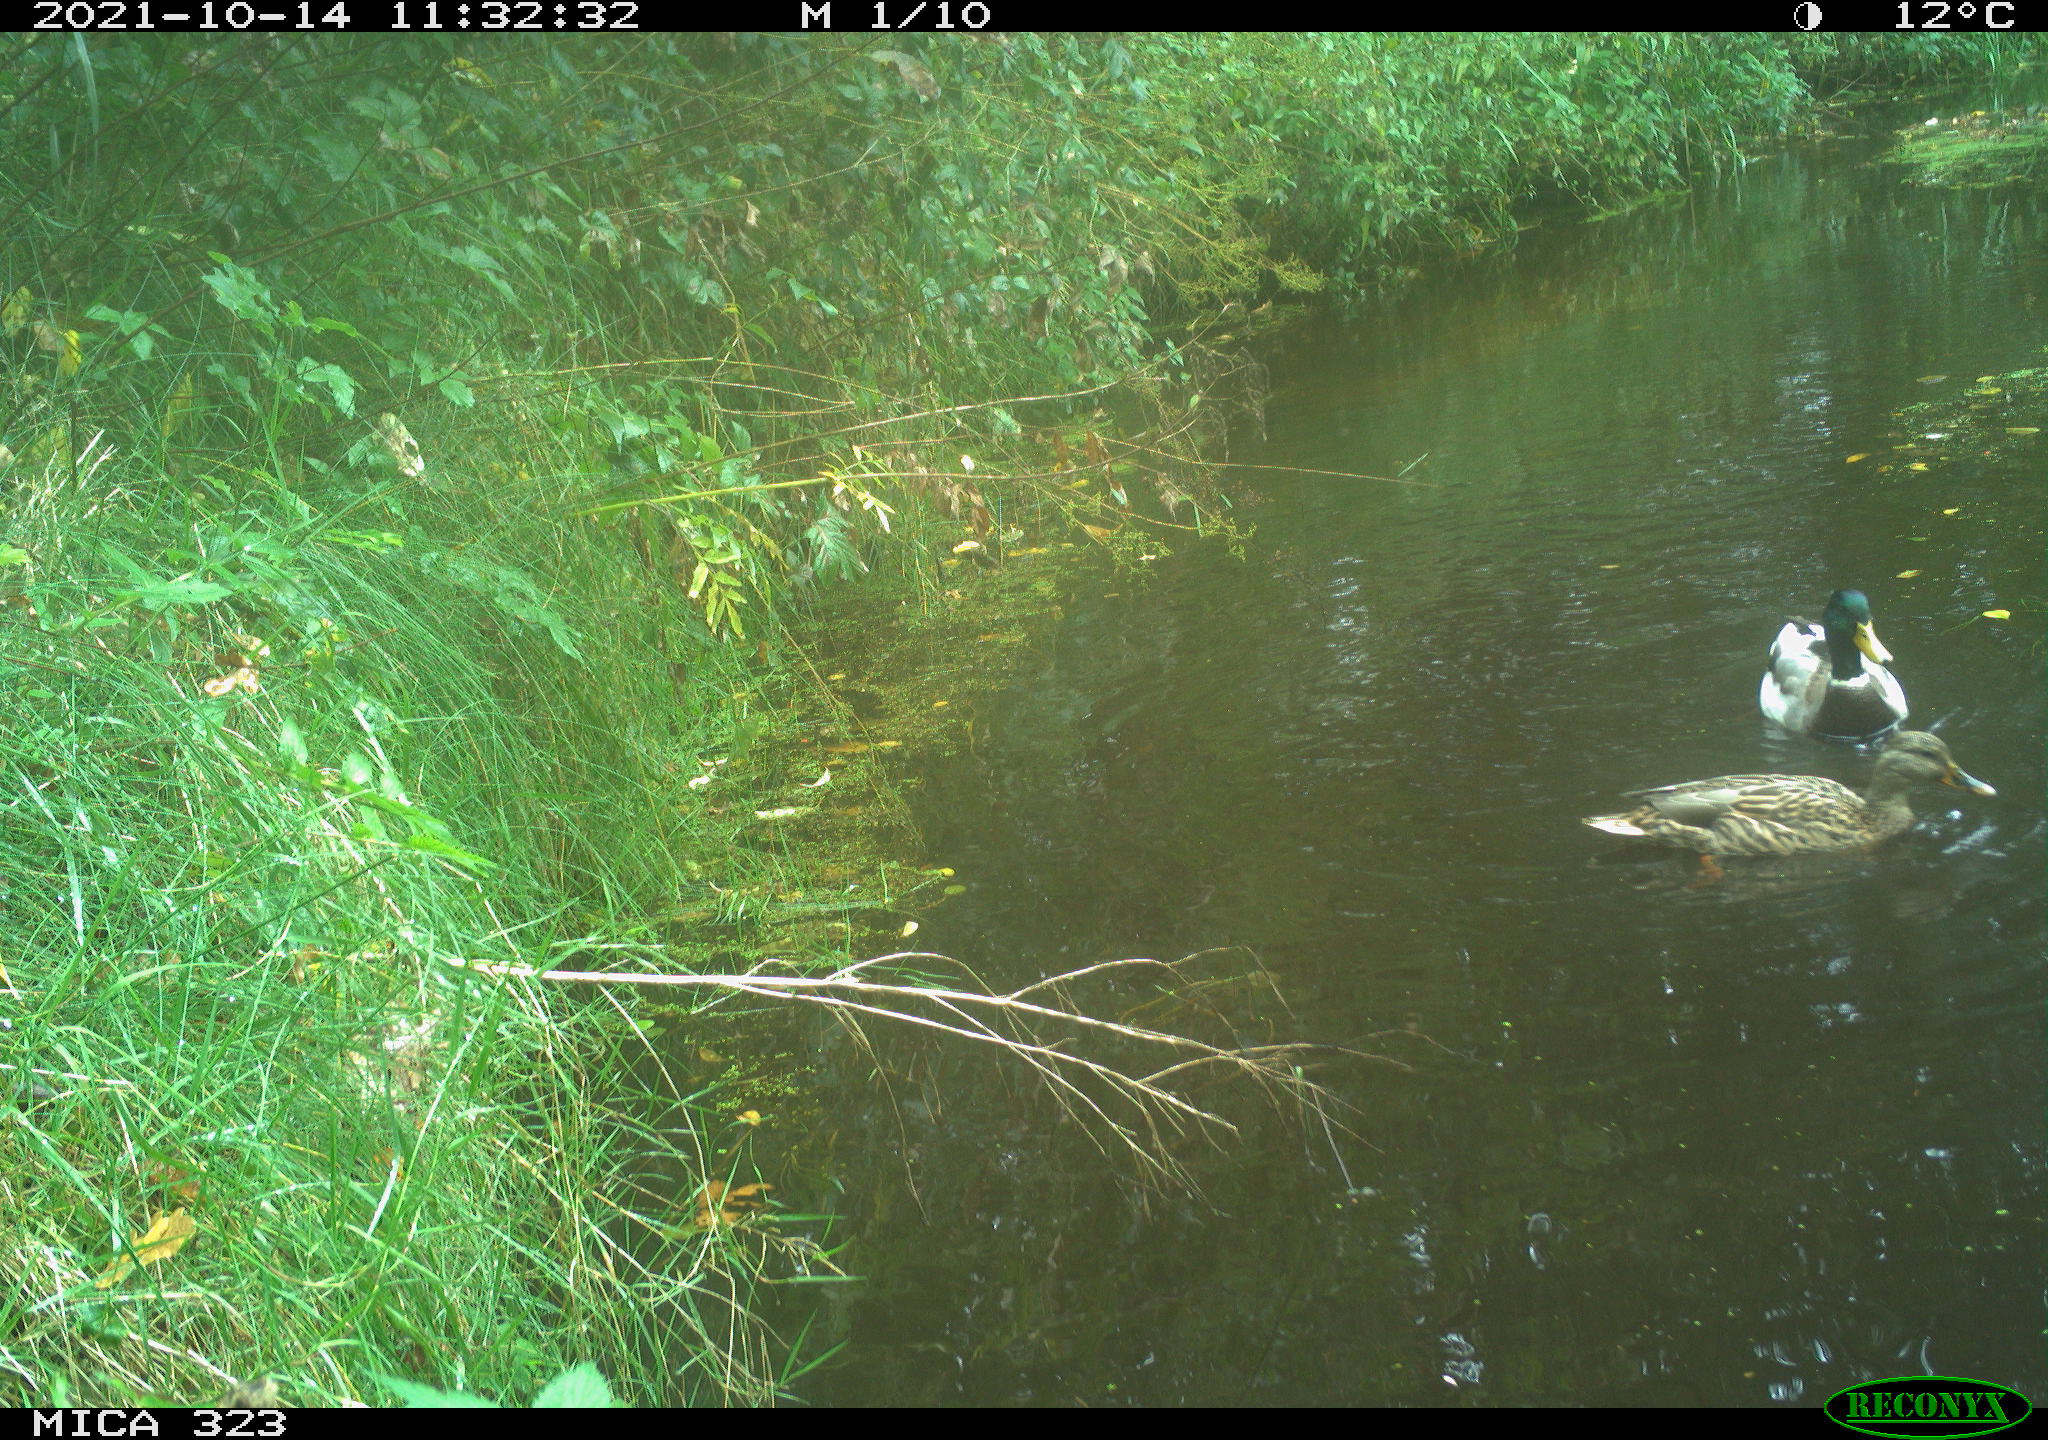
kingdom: Animalia
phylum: Chordata
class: Aves
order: Anseriformes
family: Anatidae
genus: Anas
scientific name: Anas platyrhynchos
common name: Mallard
